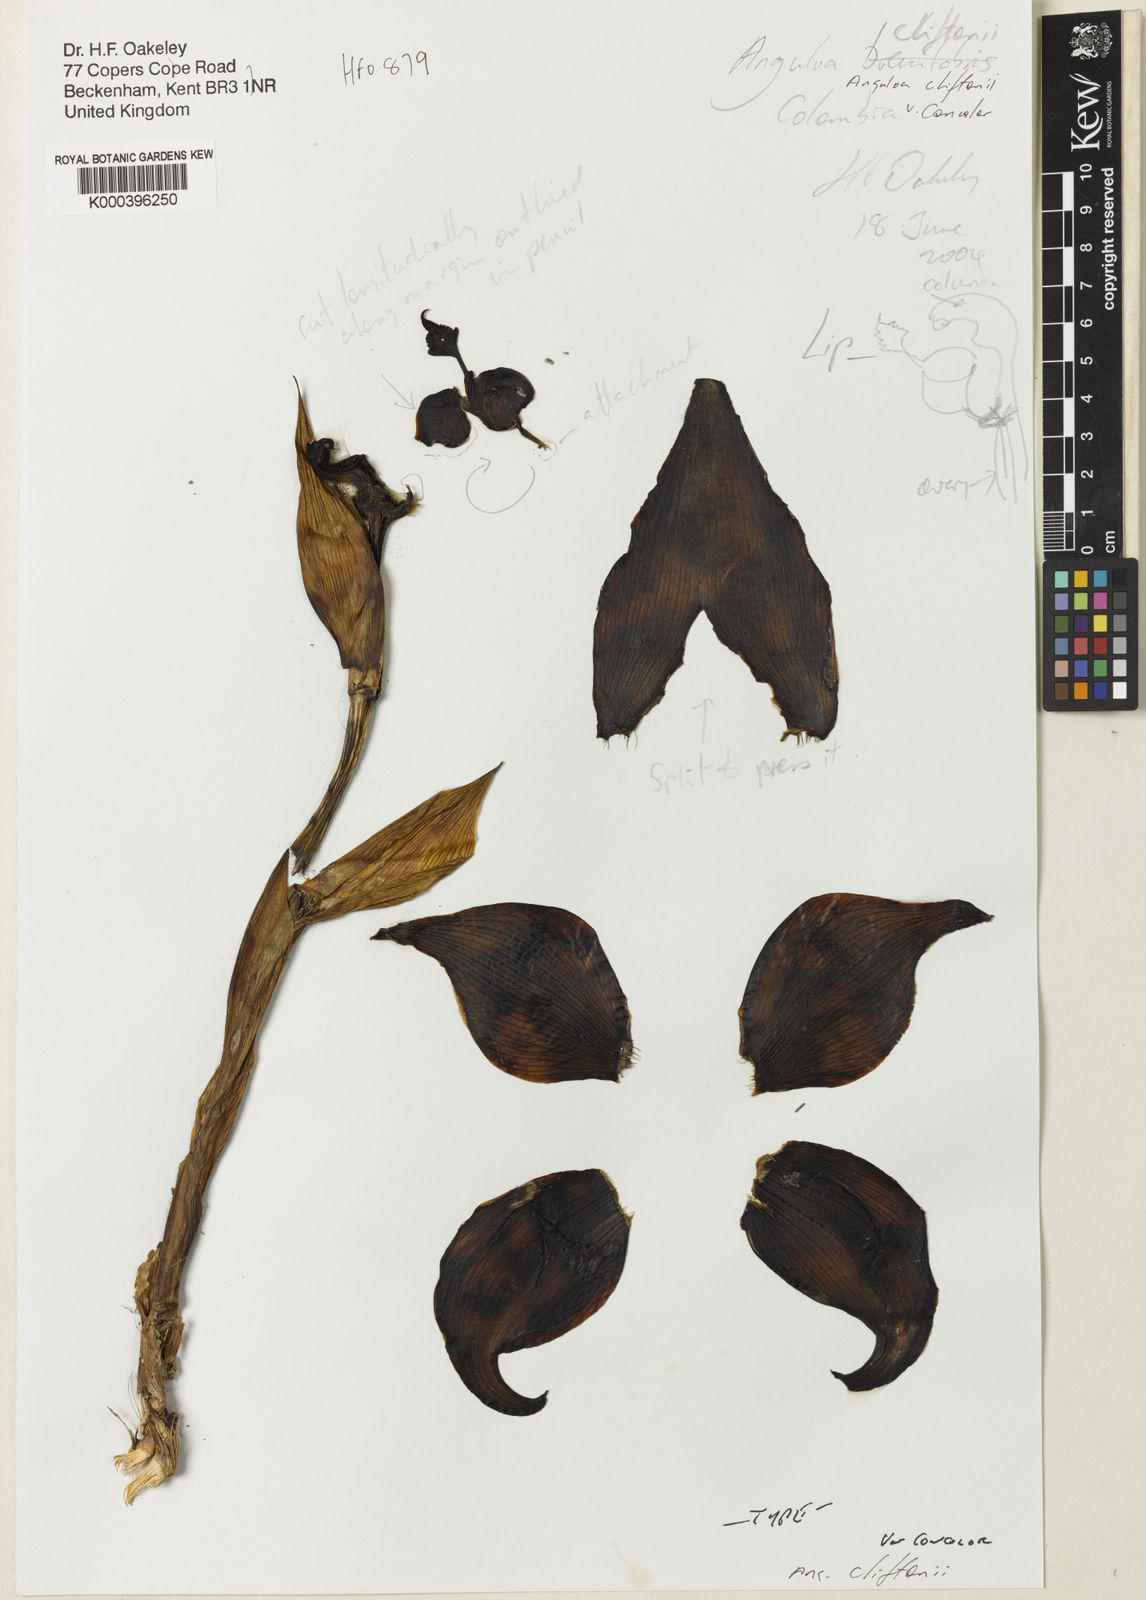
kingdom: Plantae
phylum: Tracheophyta
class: Liliopsida
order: Asparagales
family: Orchidaceae
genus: Anguloa
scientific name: Anguloa cliftonii
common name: Clifton's anguloa
